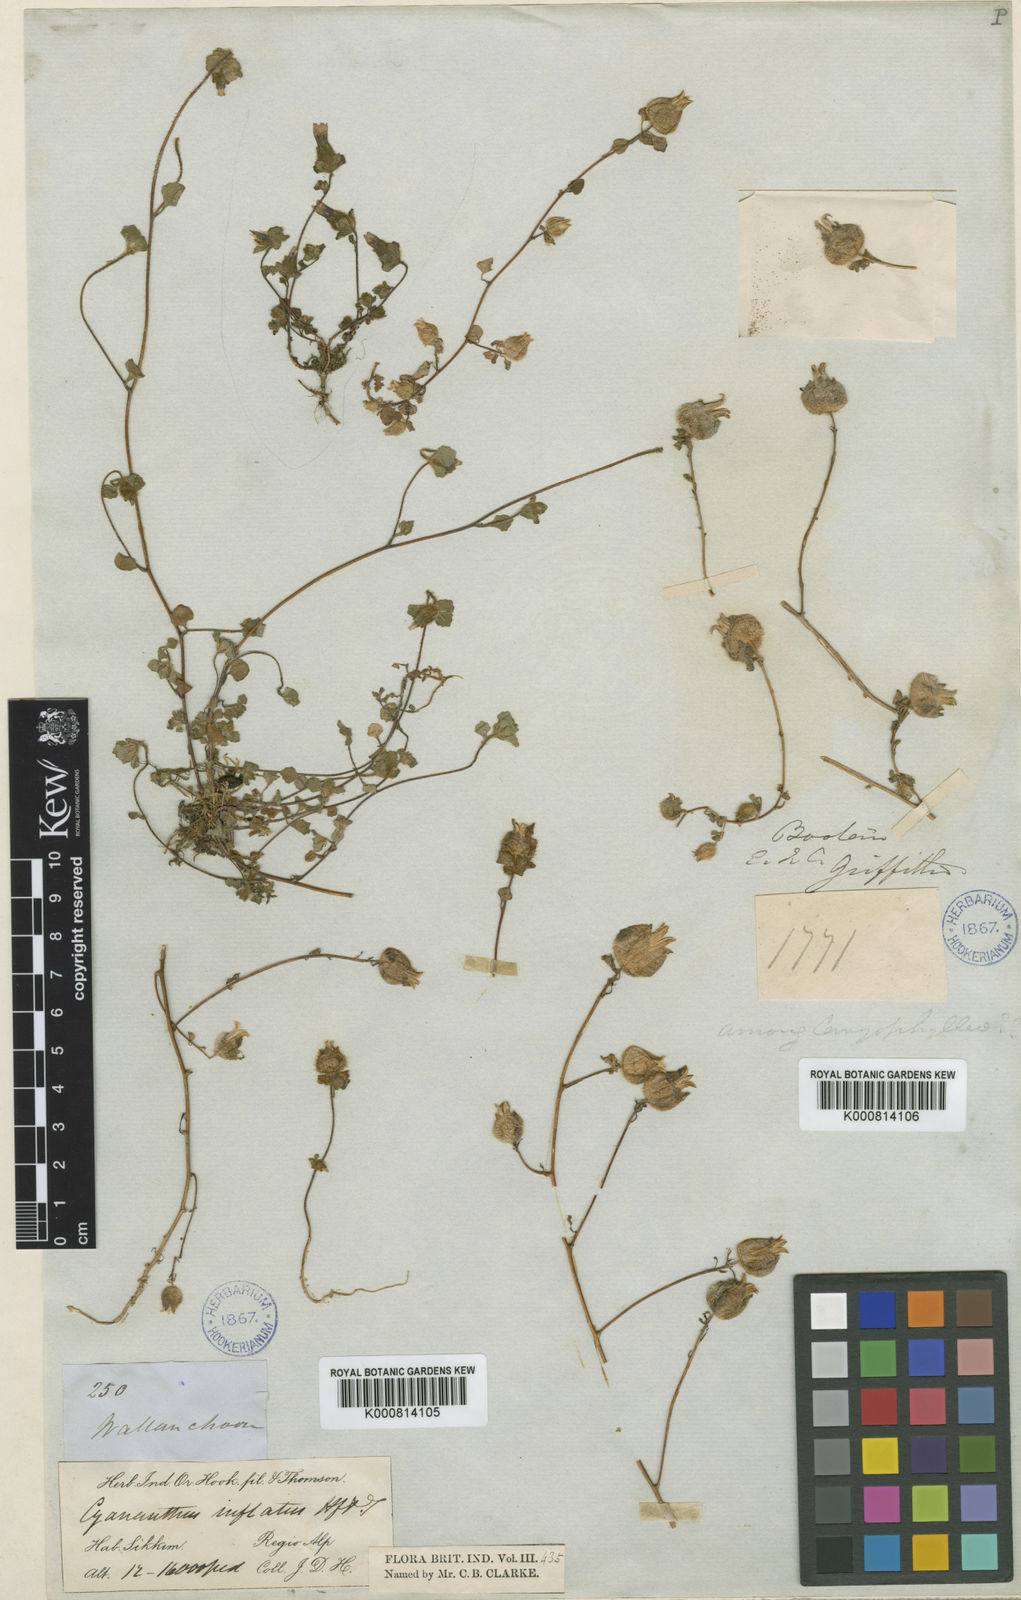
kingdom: Plantae
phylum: Tracheophyta
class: Magnoliopsida
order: Asterales
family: Campanulaceae
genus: Cyananthus
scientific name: Cyananthus inflatus
